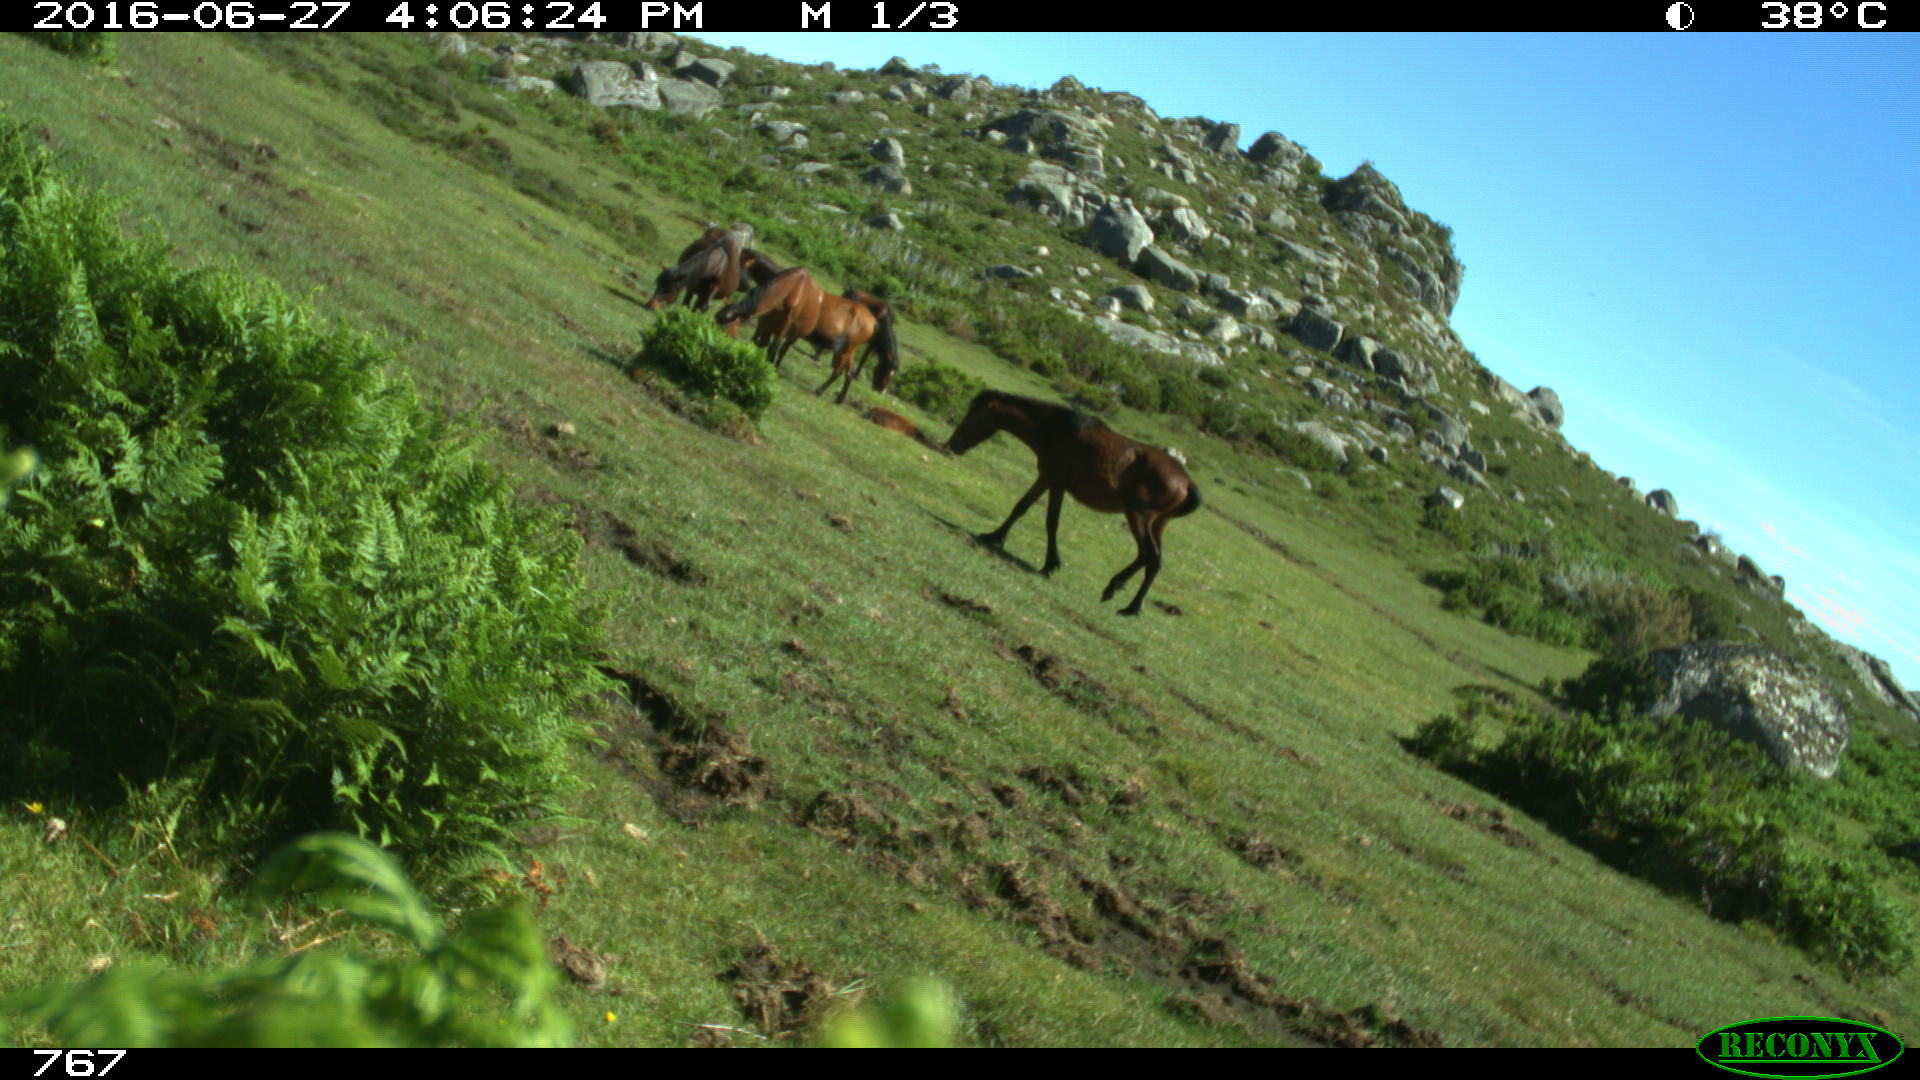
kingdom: Animalia
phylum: Chordata
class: Mammalia
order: Perissodactyla
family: Equidae
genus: Equus
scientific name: Equus caballus
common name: Horse
